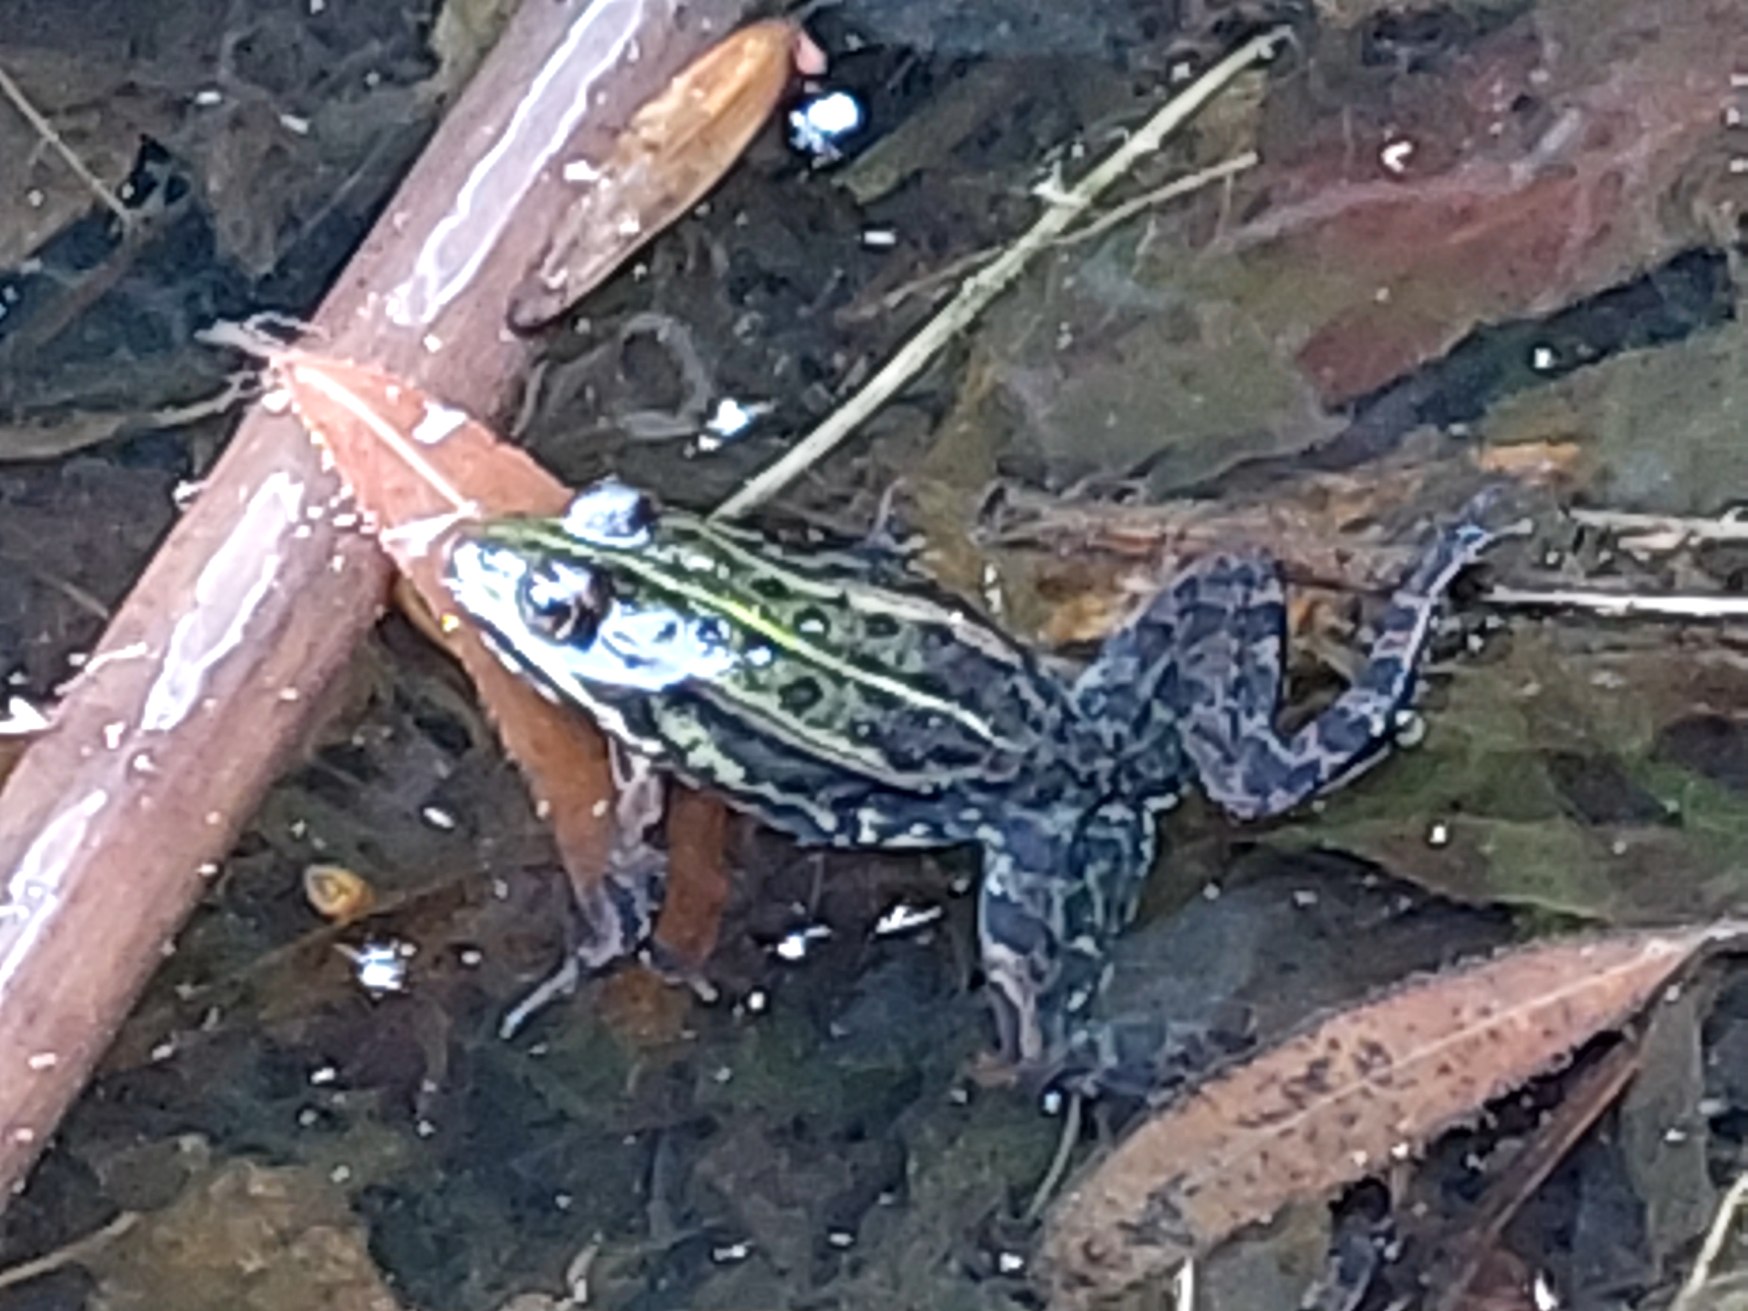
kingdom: Animalia
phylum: Chordata
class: Amphibia
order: Anura
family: Ranidae
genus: Pelophylax
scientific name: Pelophylax lessonae
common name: Grøn frø
